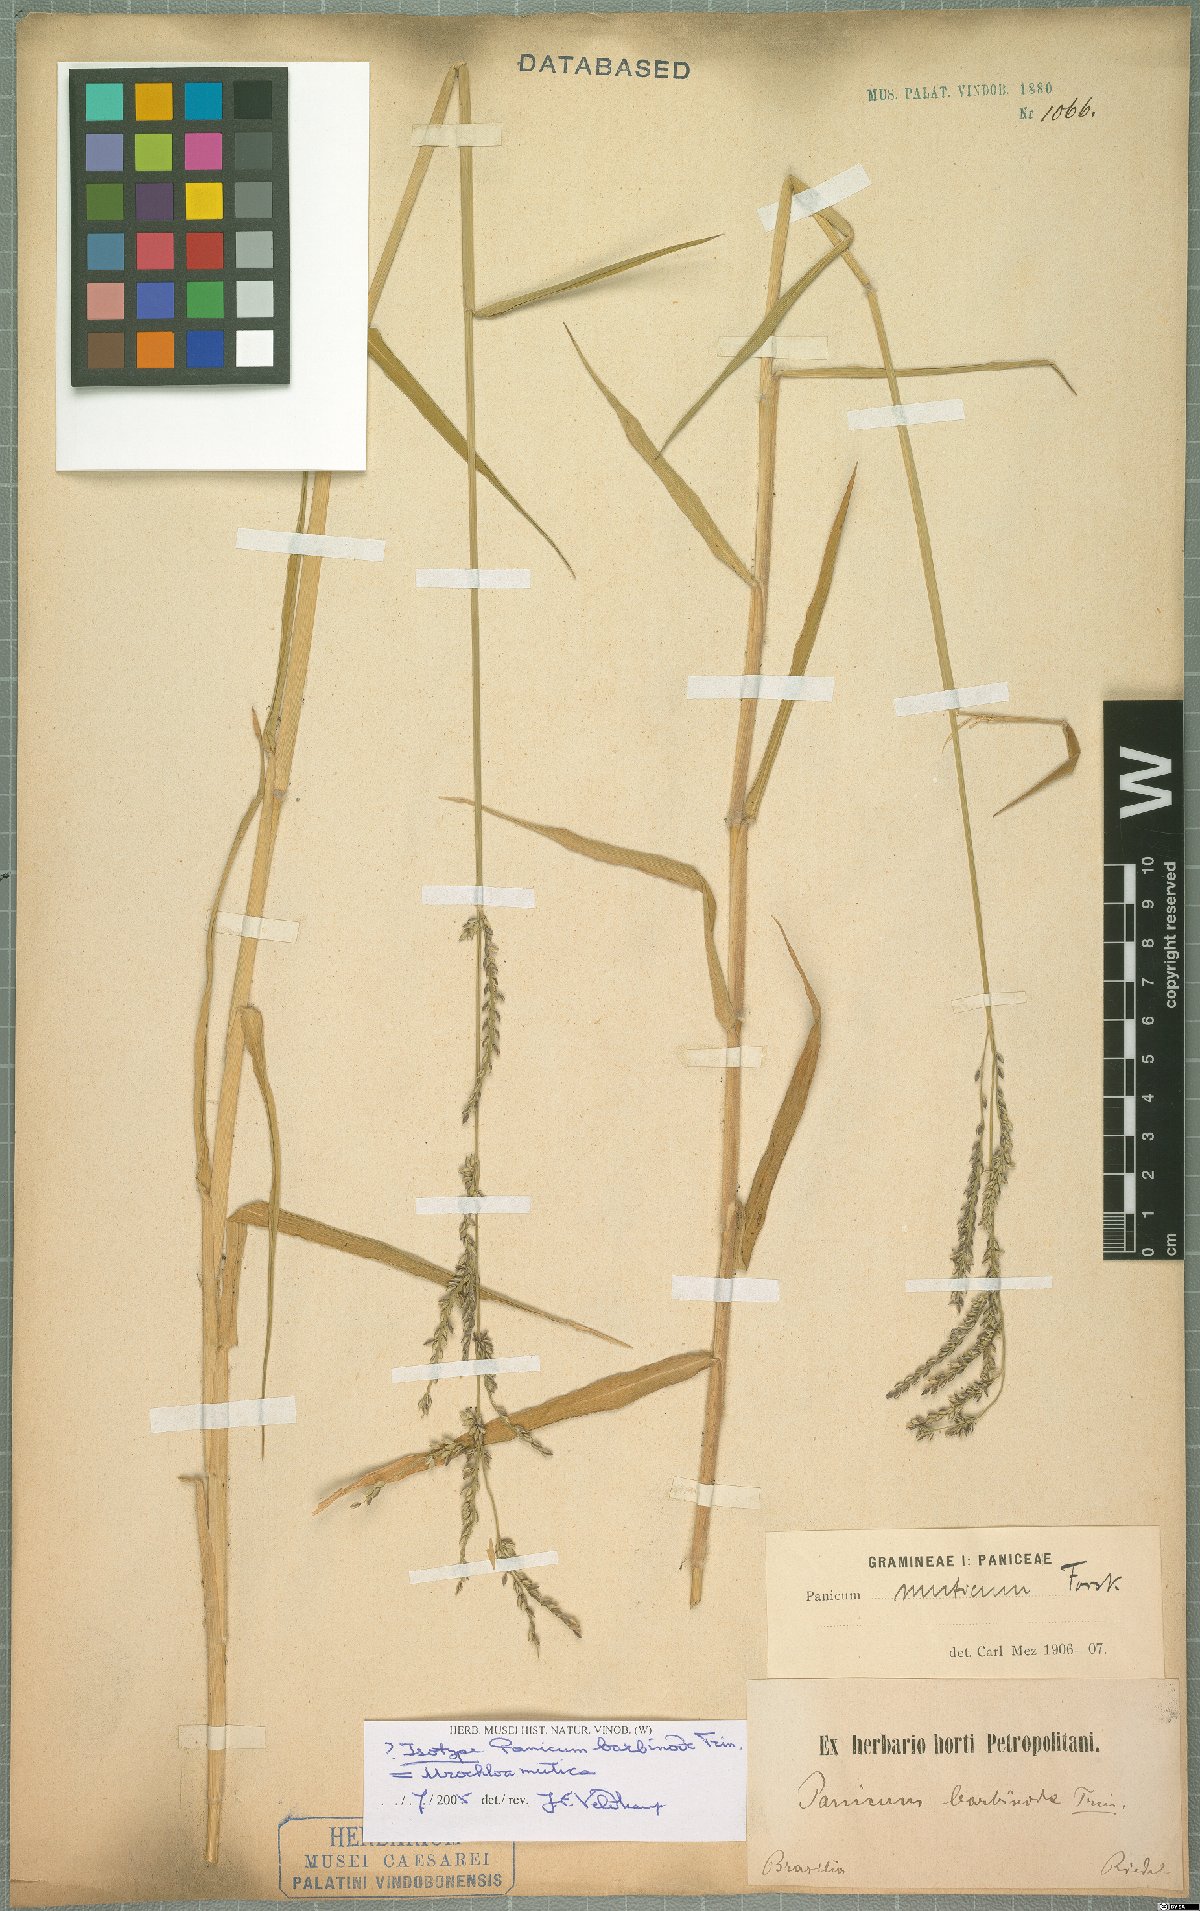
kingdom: Plantae
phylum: Tracheophyta
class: Liliopsida
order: Poales
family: Poaceae
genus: Urochloa
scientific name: Urochloa mutica
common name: Para grass
